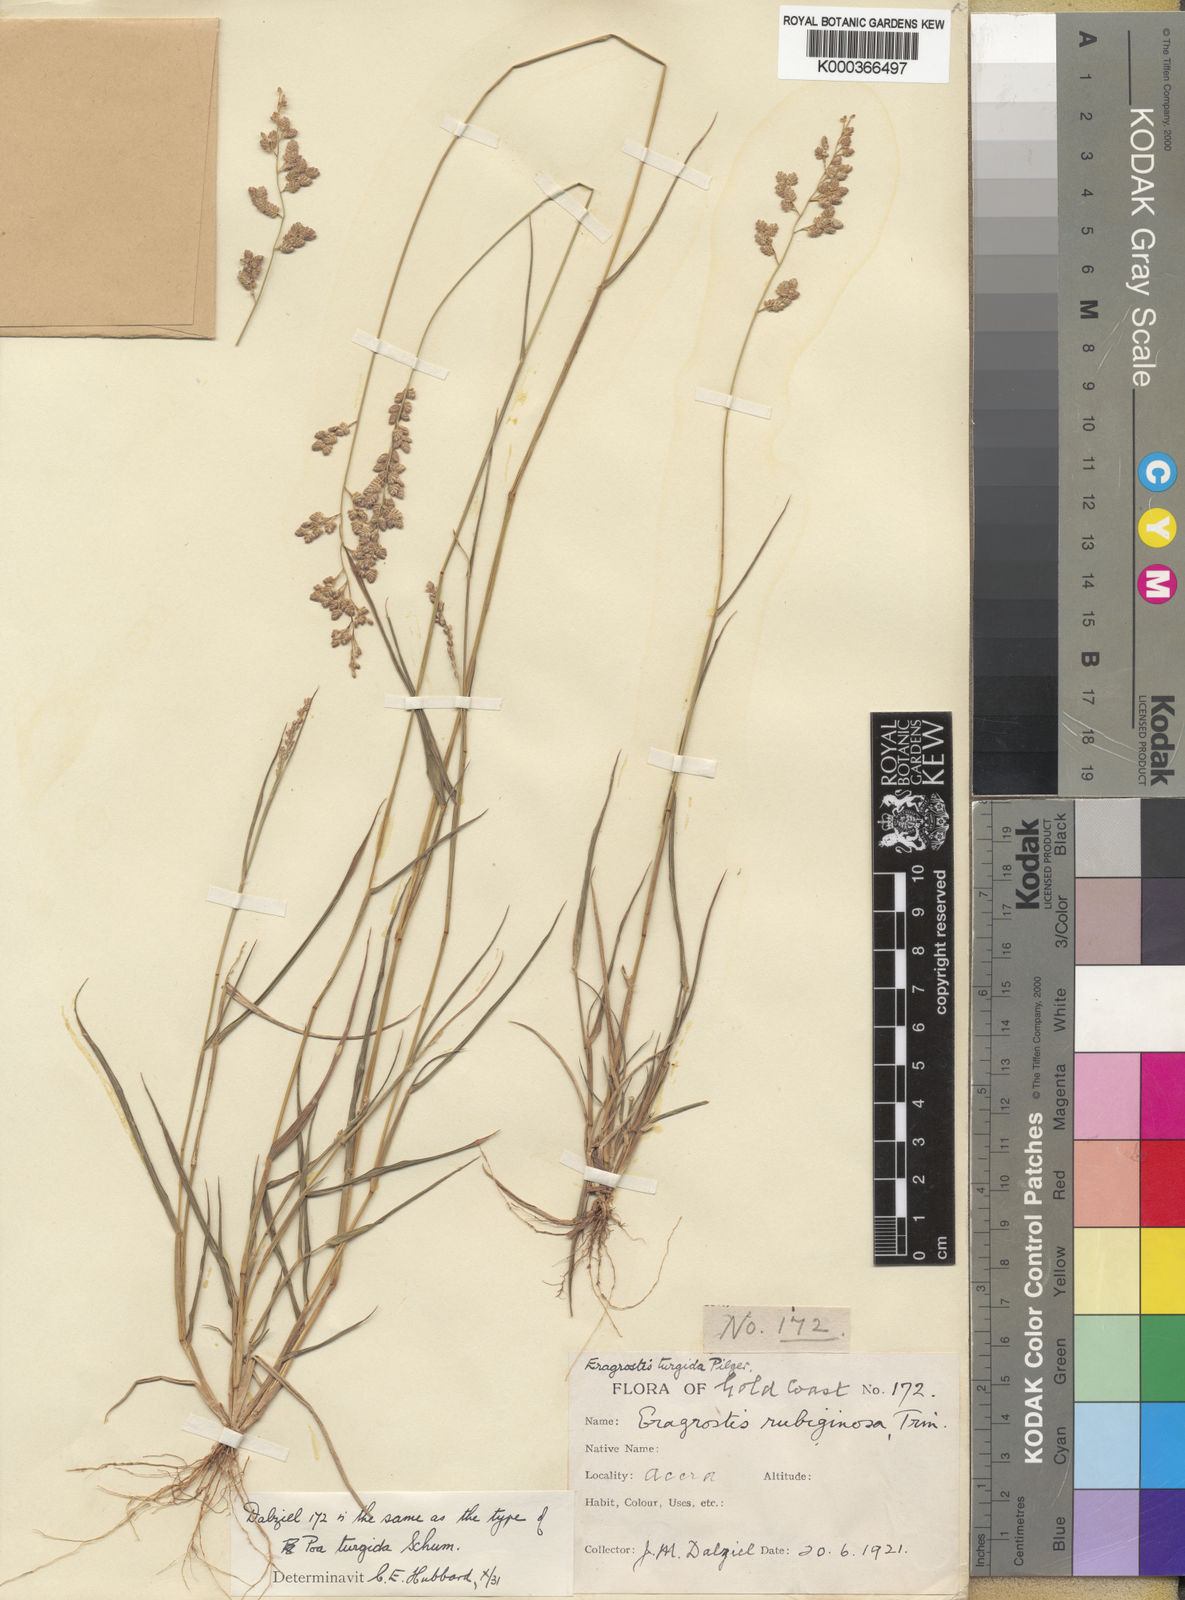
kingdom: Plantae
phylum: Tracheophyta
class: Liliopsida
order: Poales
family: Poaceae
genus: Eragrostis
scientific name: Eragrostis turgida
